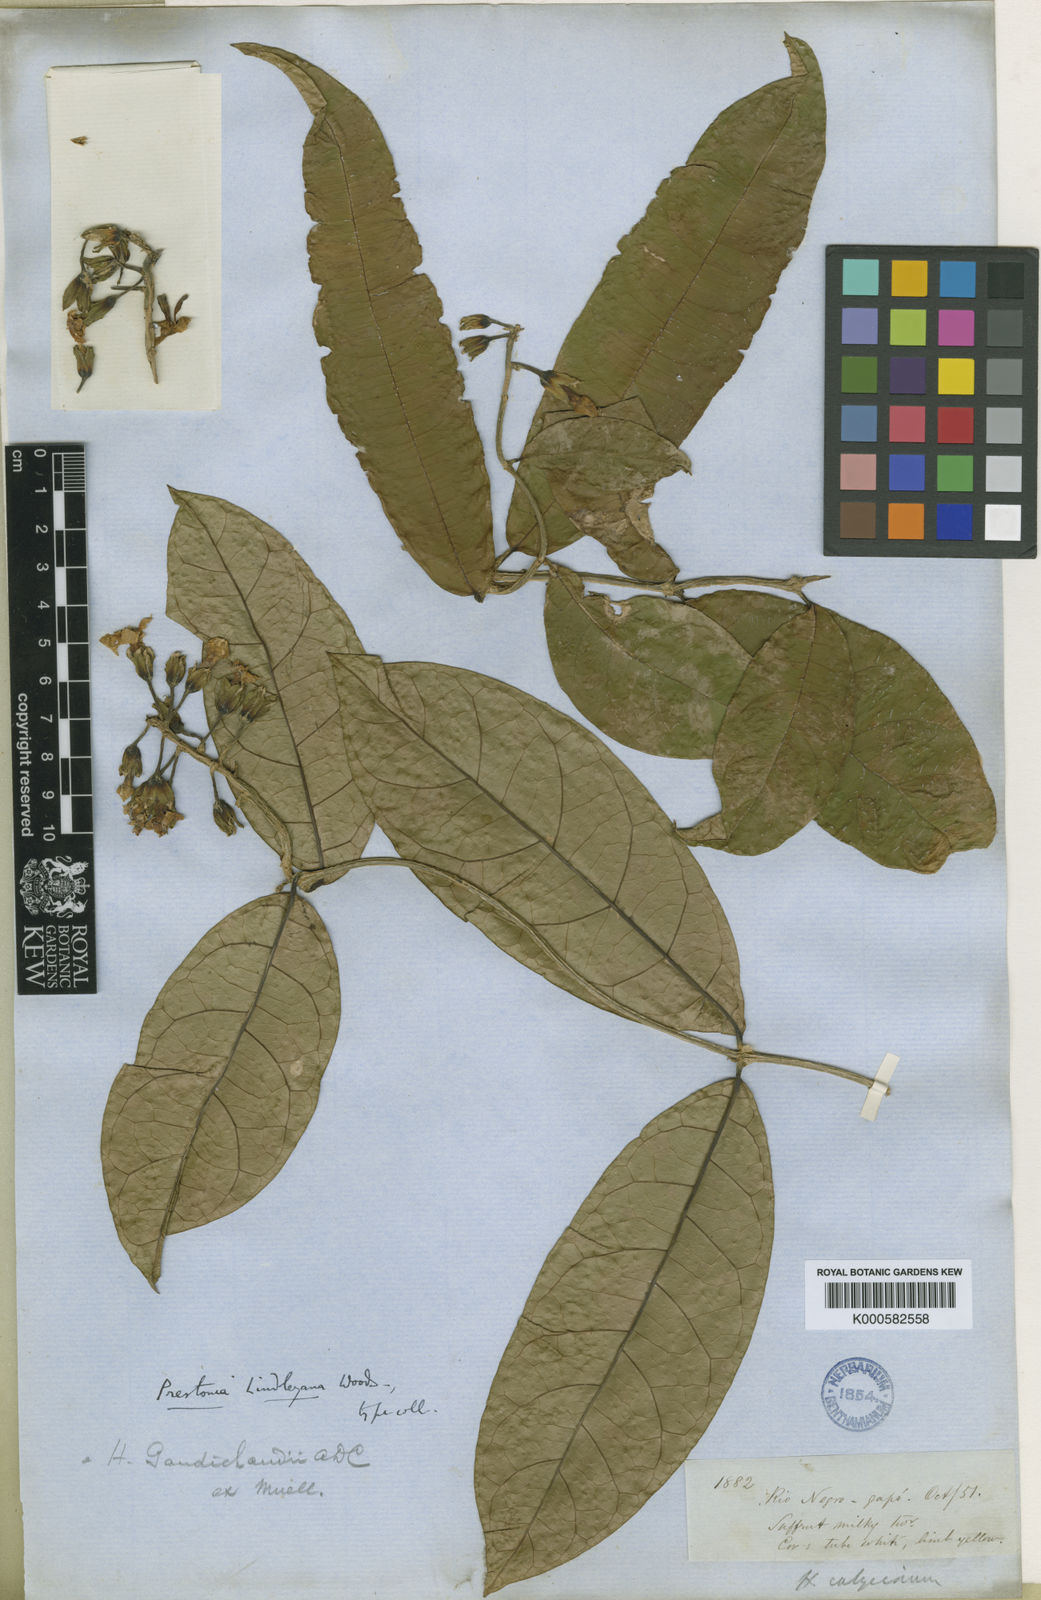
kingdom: Plantae
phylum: Tracheophyta
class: Magnoliopsida
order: Gentianales
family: Apocynaceae
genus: Prestonia
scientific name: Prestonia lindleyana
